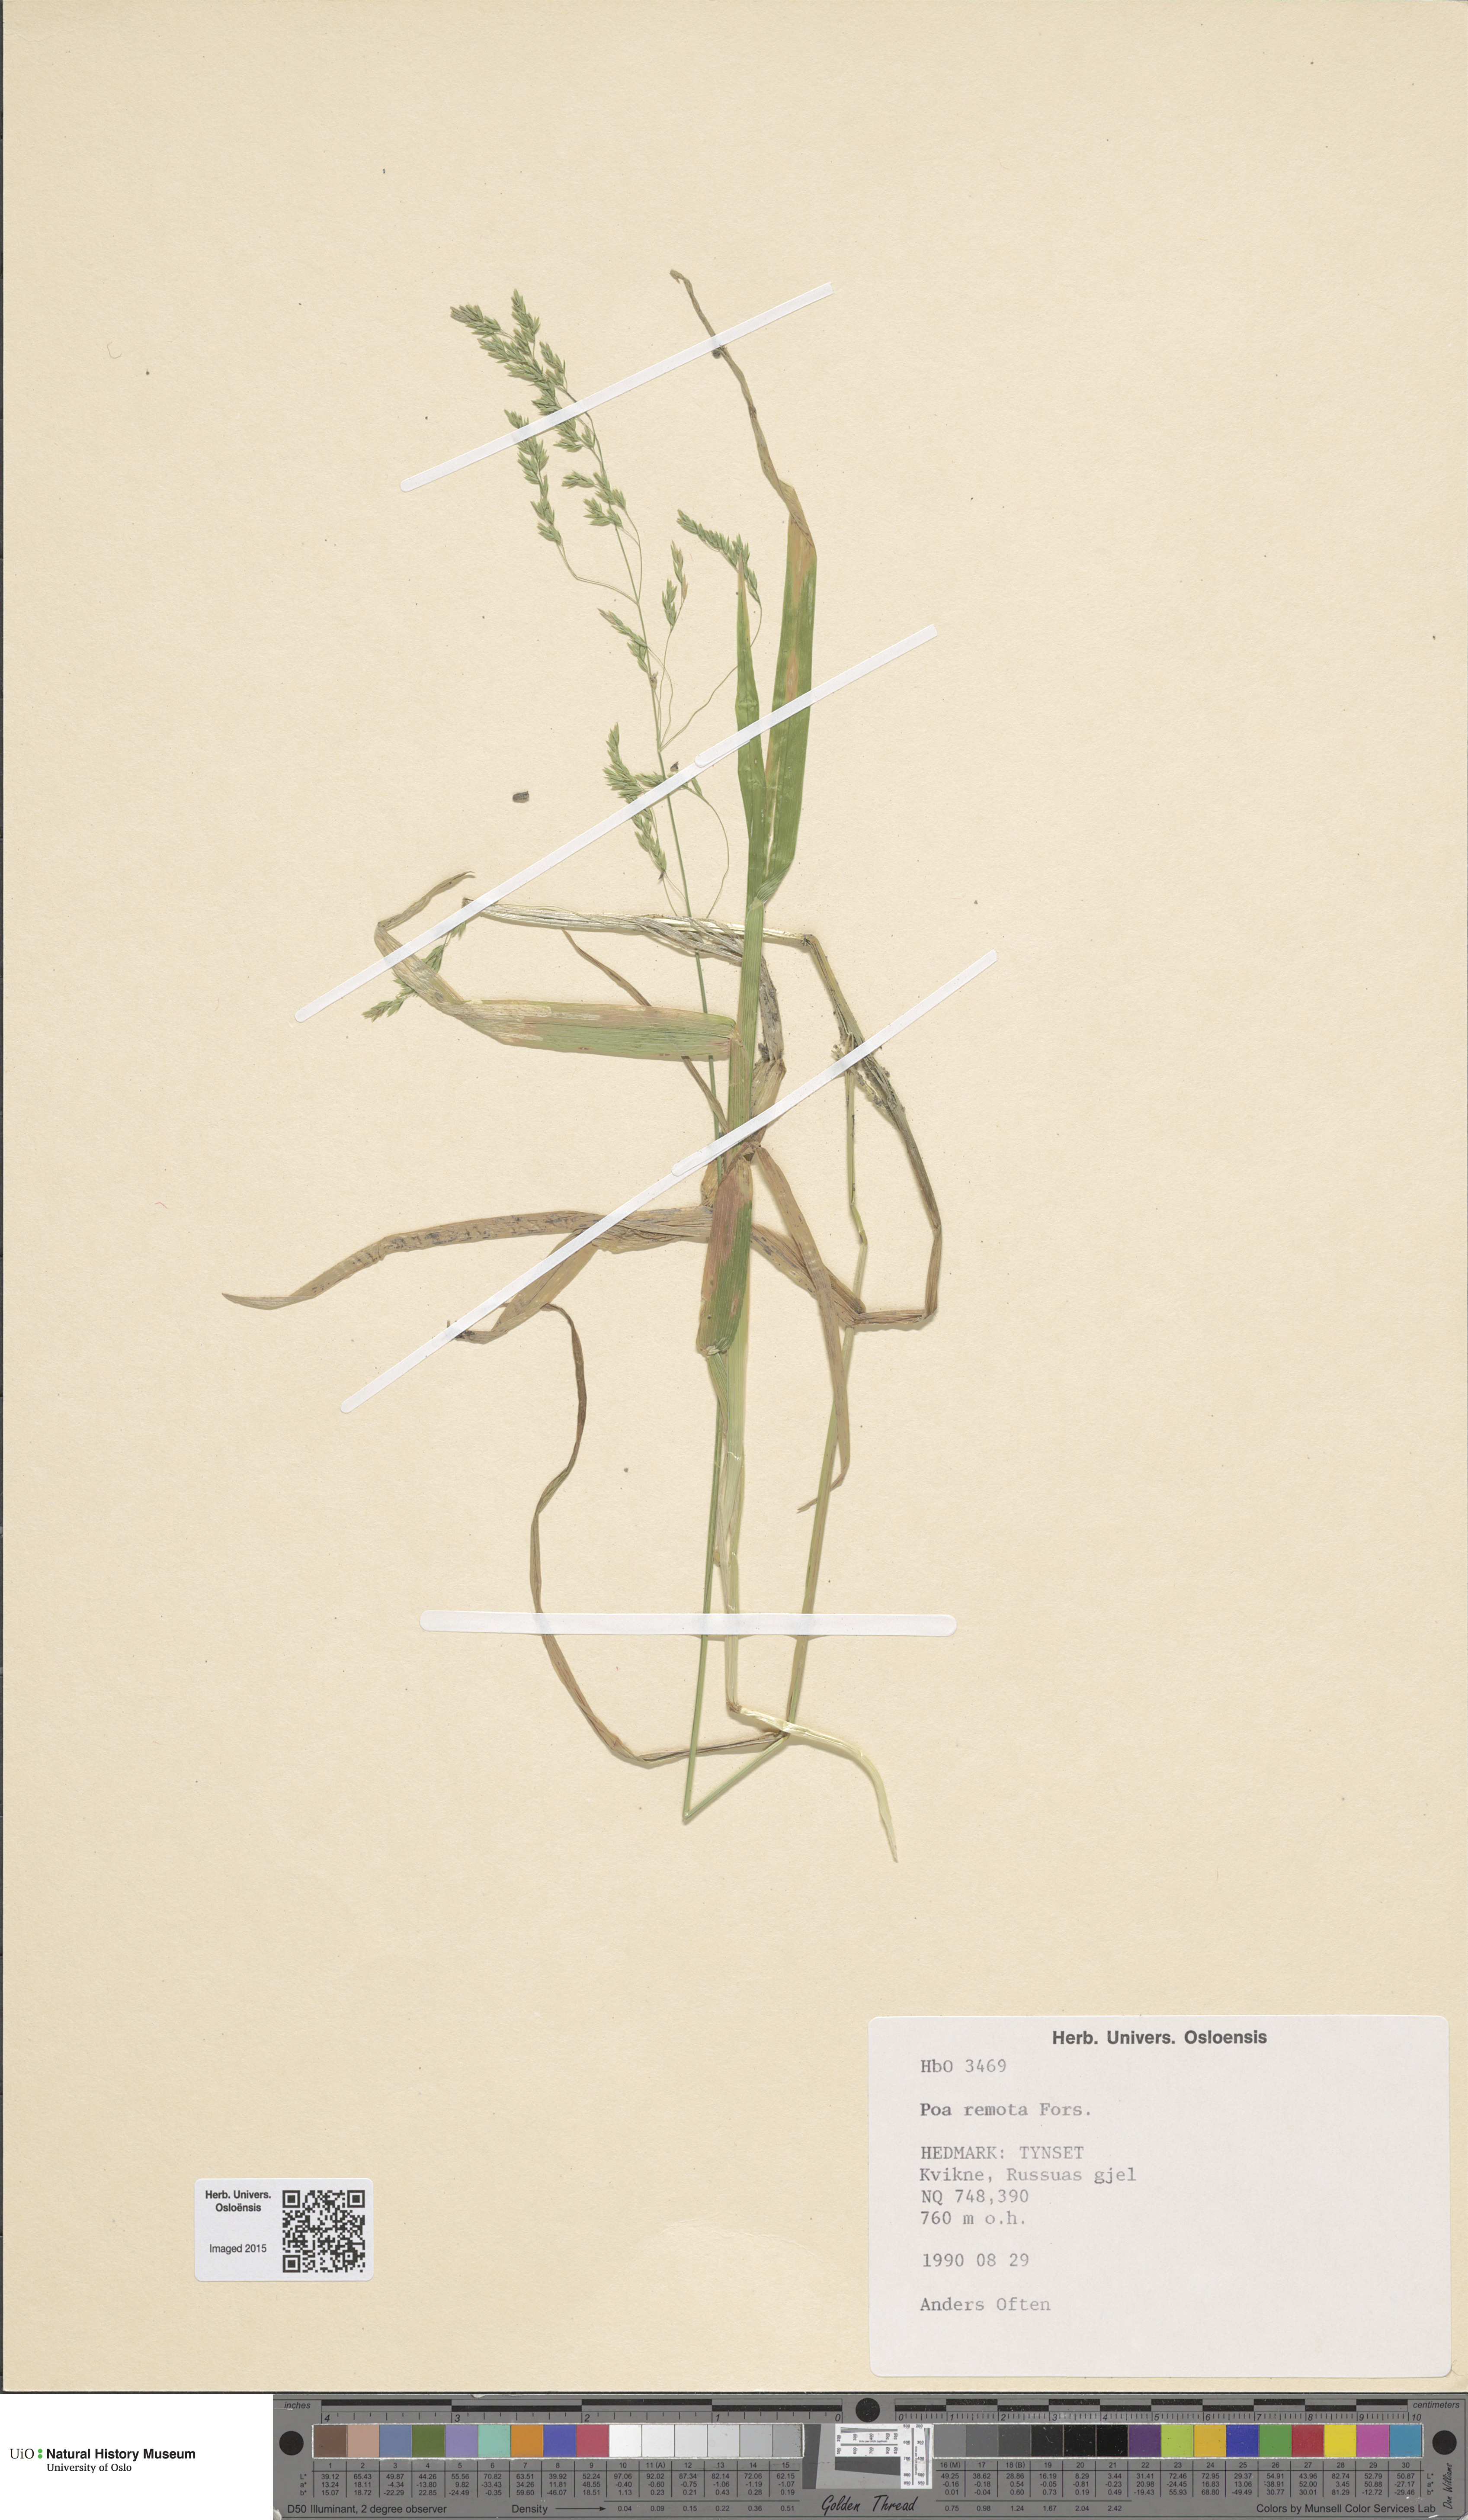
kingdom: Plantae
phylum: Tracheophyta
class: Liliopsida
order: Poales
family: Poaceae
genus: Poa
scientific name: Poa remota
